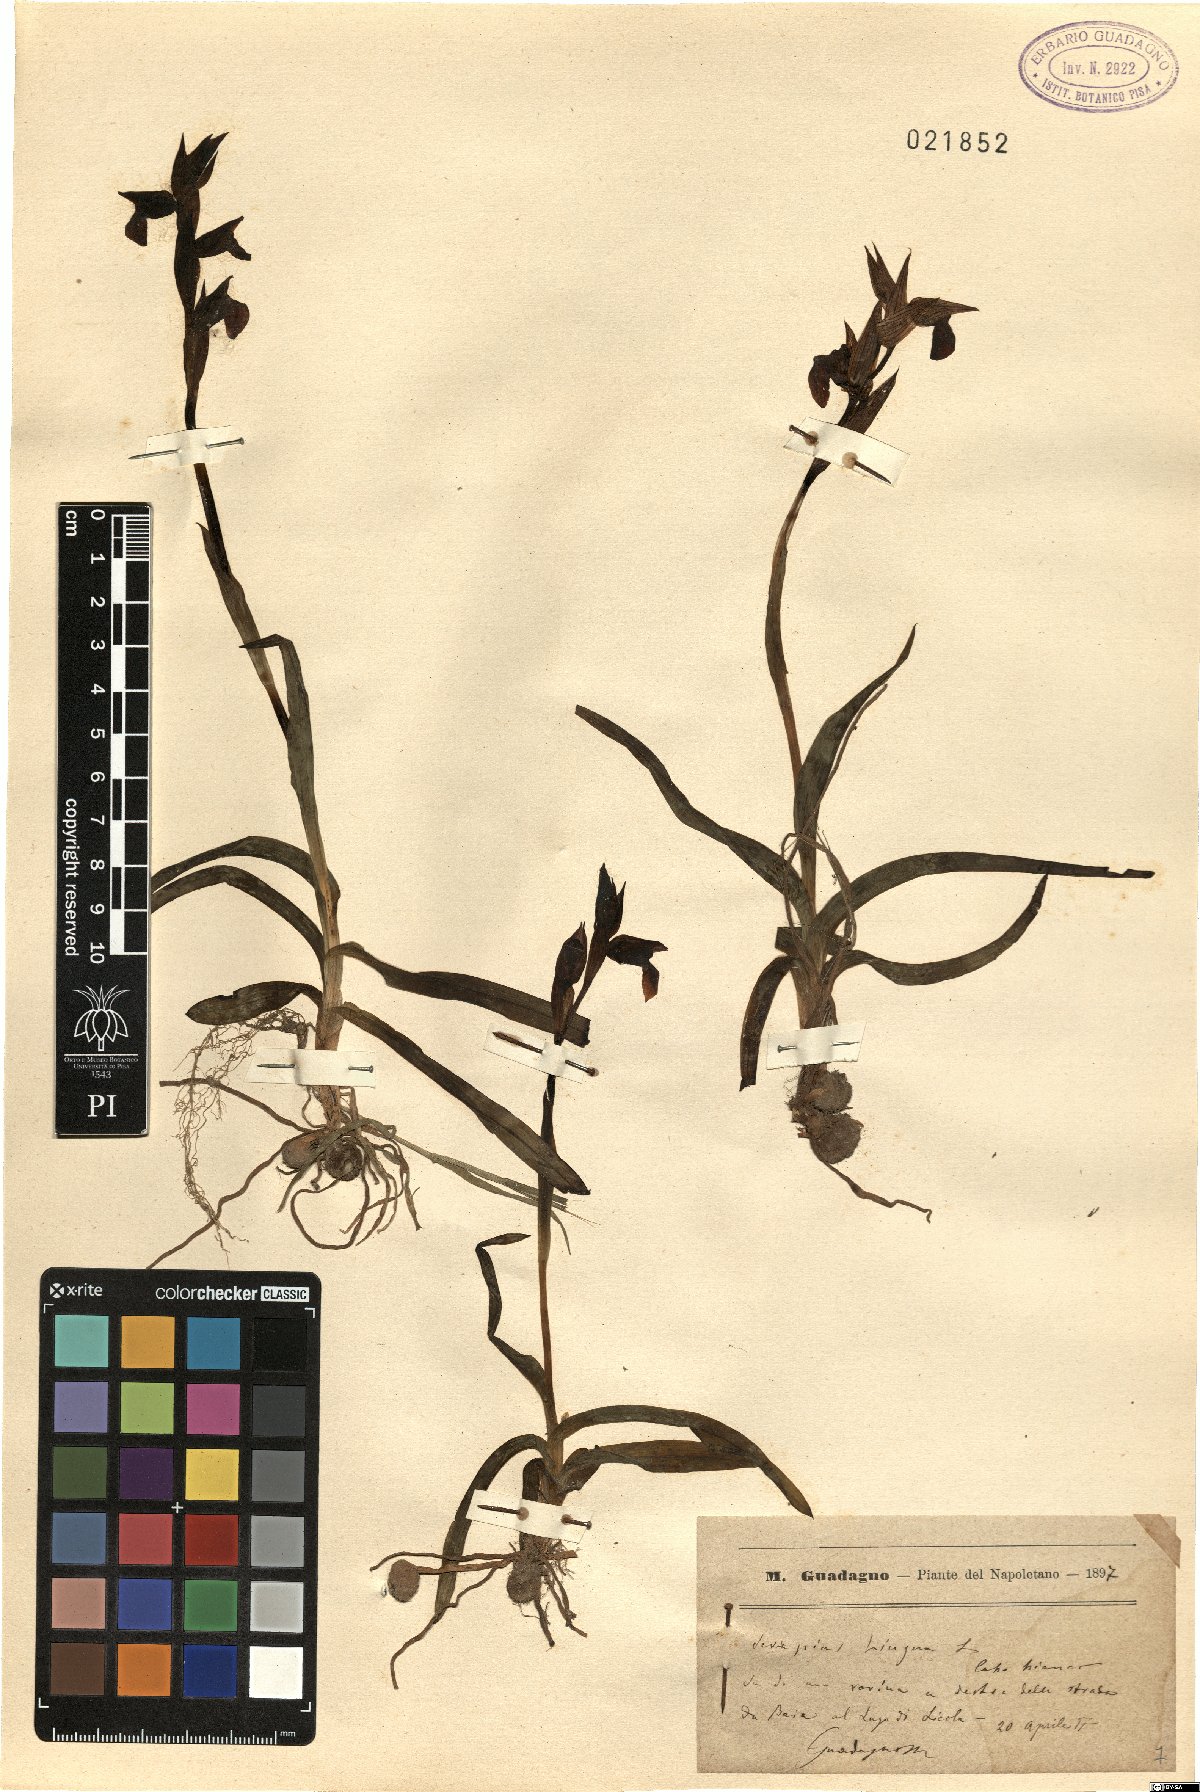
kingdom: Plantae
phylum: Tracheophyta
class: Liliopsida
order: Asparagales
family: Orchidaceae
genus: Serapias
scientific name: Serapias lingua
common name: Tongue-orchid
